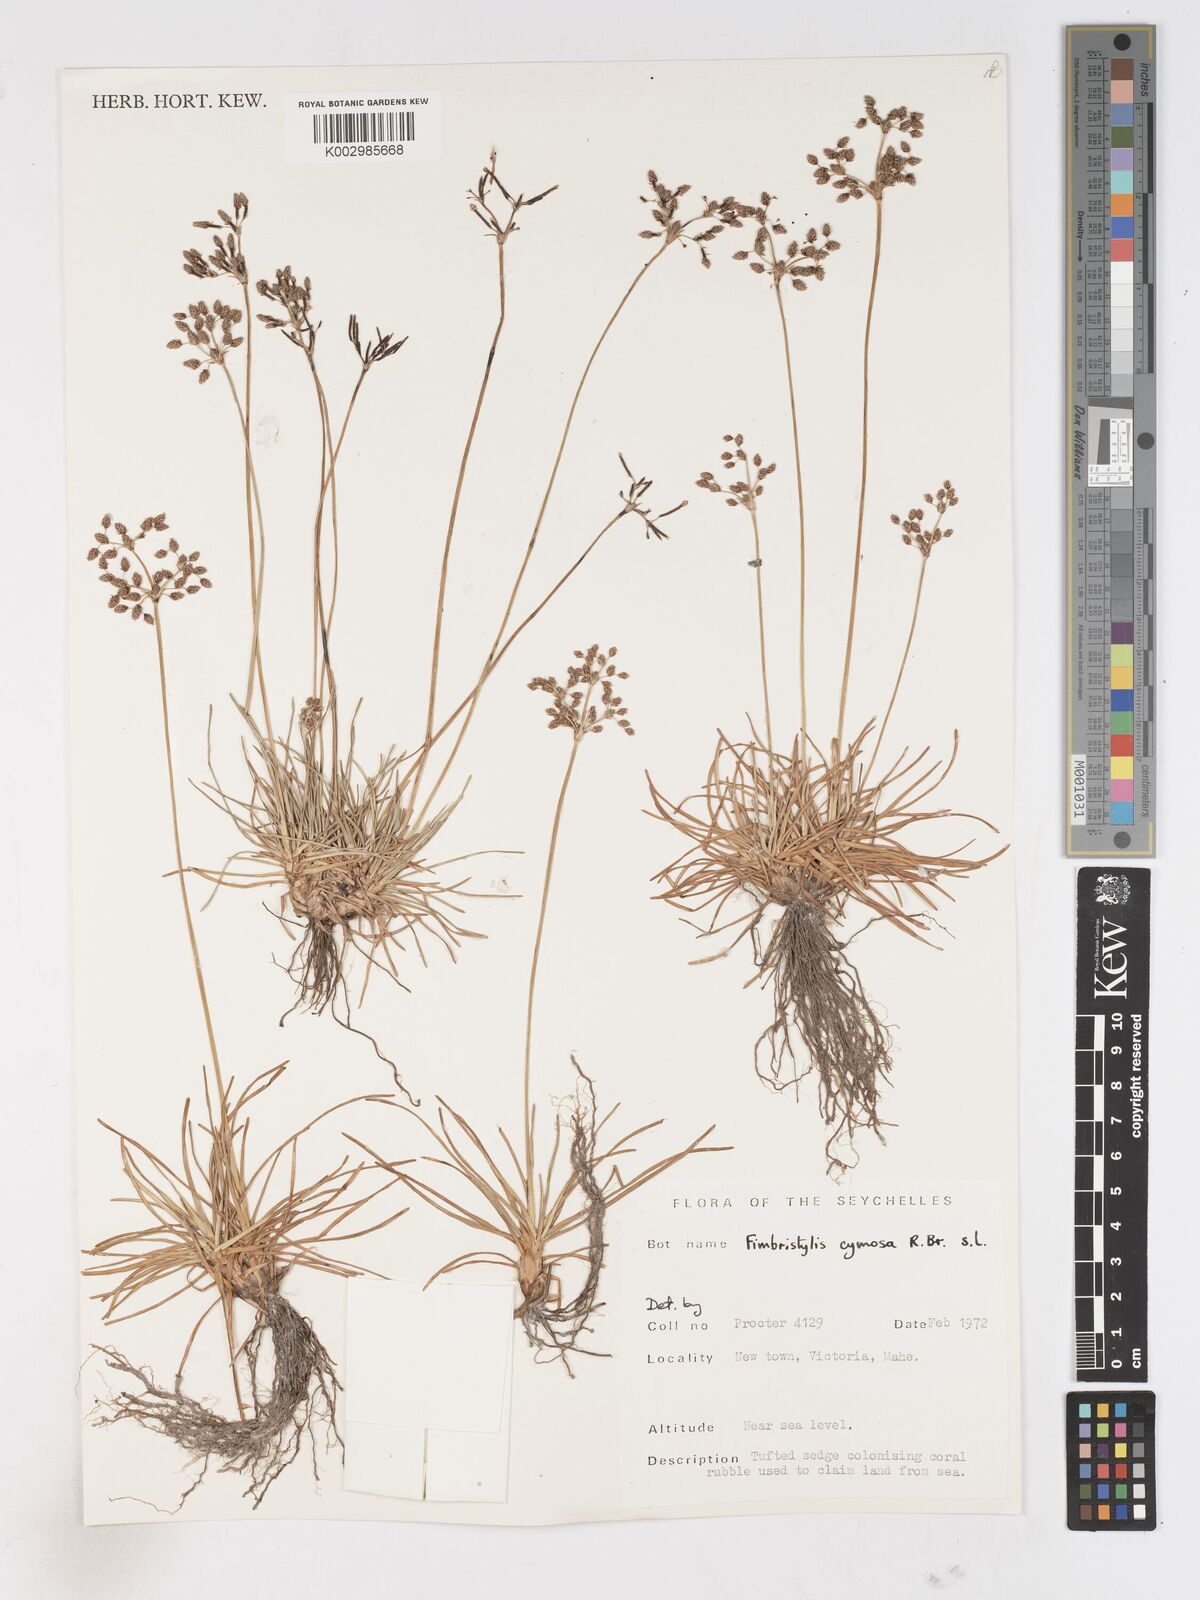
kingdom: Plantae
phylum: Tracheophyta
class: Liliopsida
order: Poales
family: Cyperaceae
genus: Fimbristylis
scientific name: Fimbristylis cymosa
